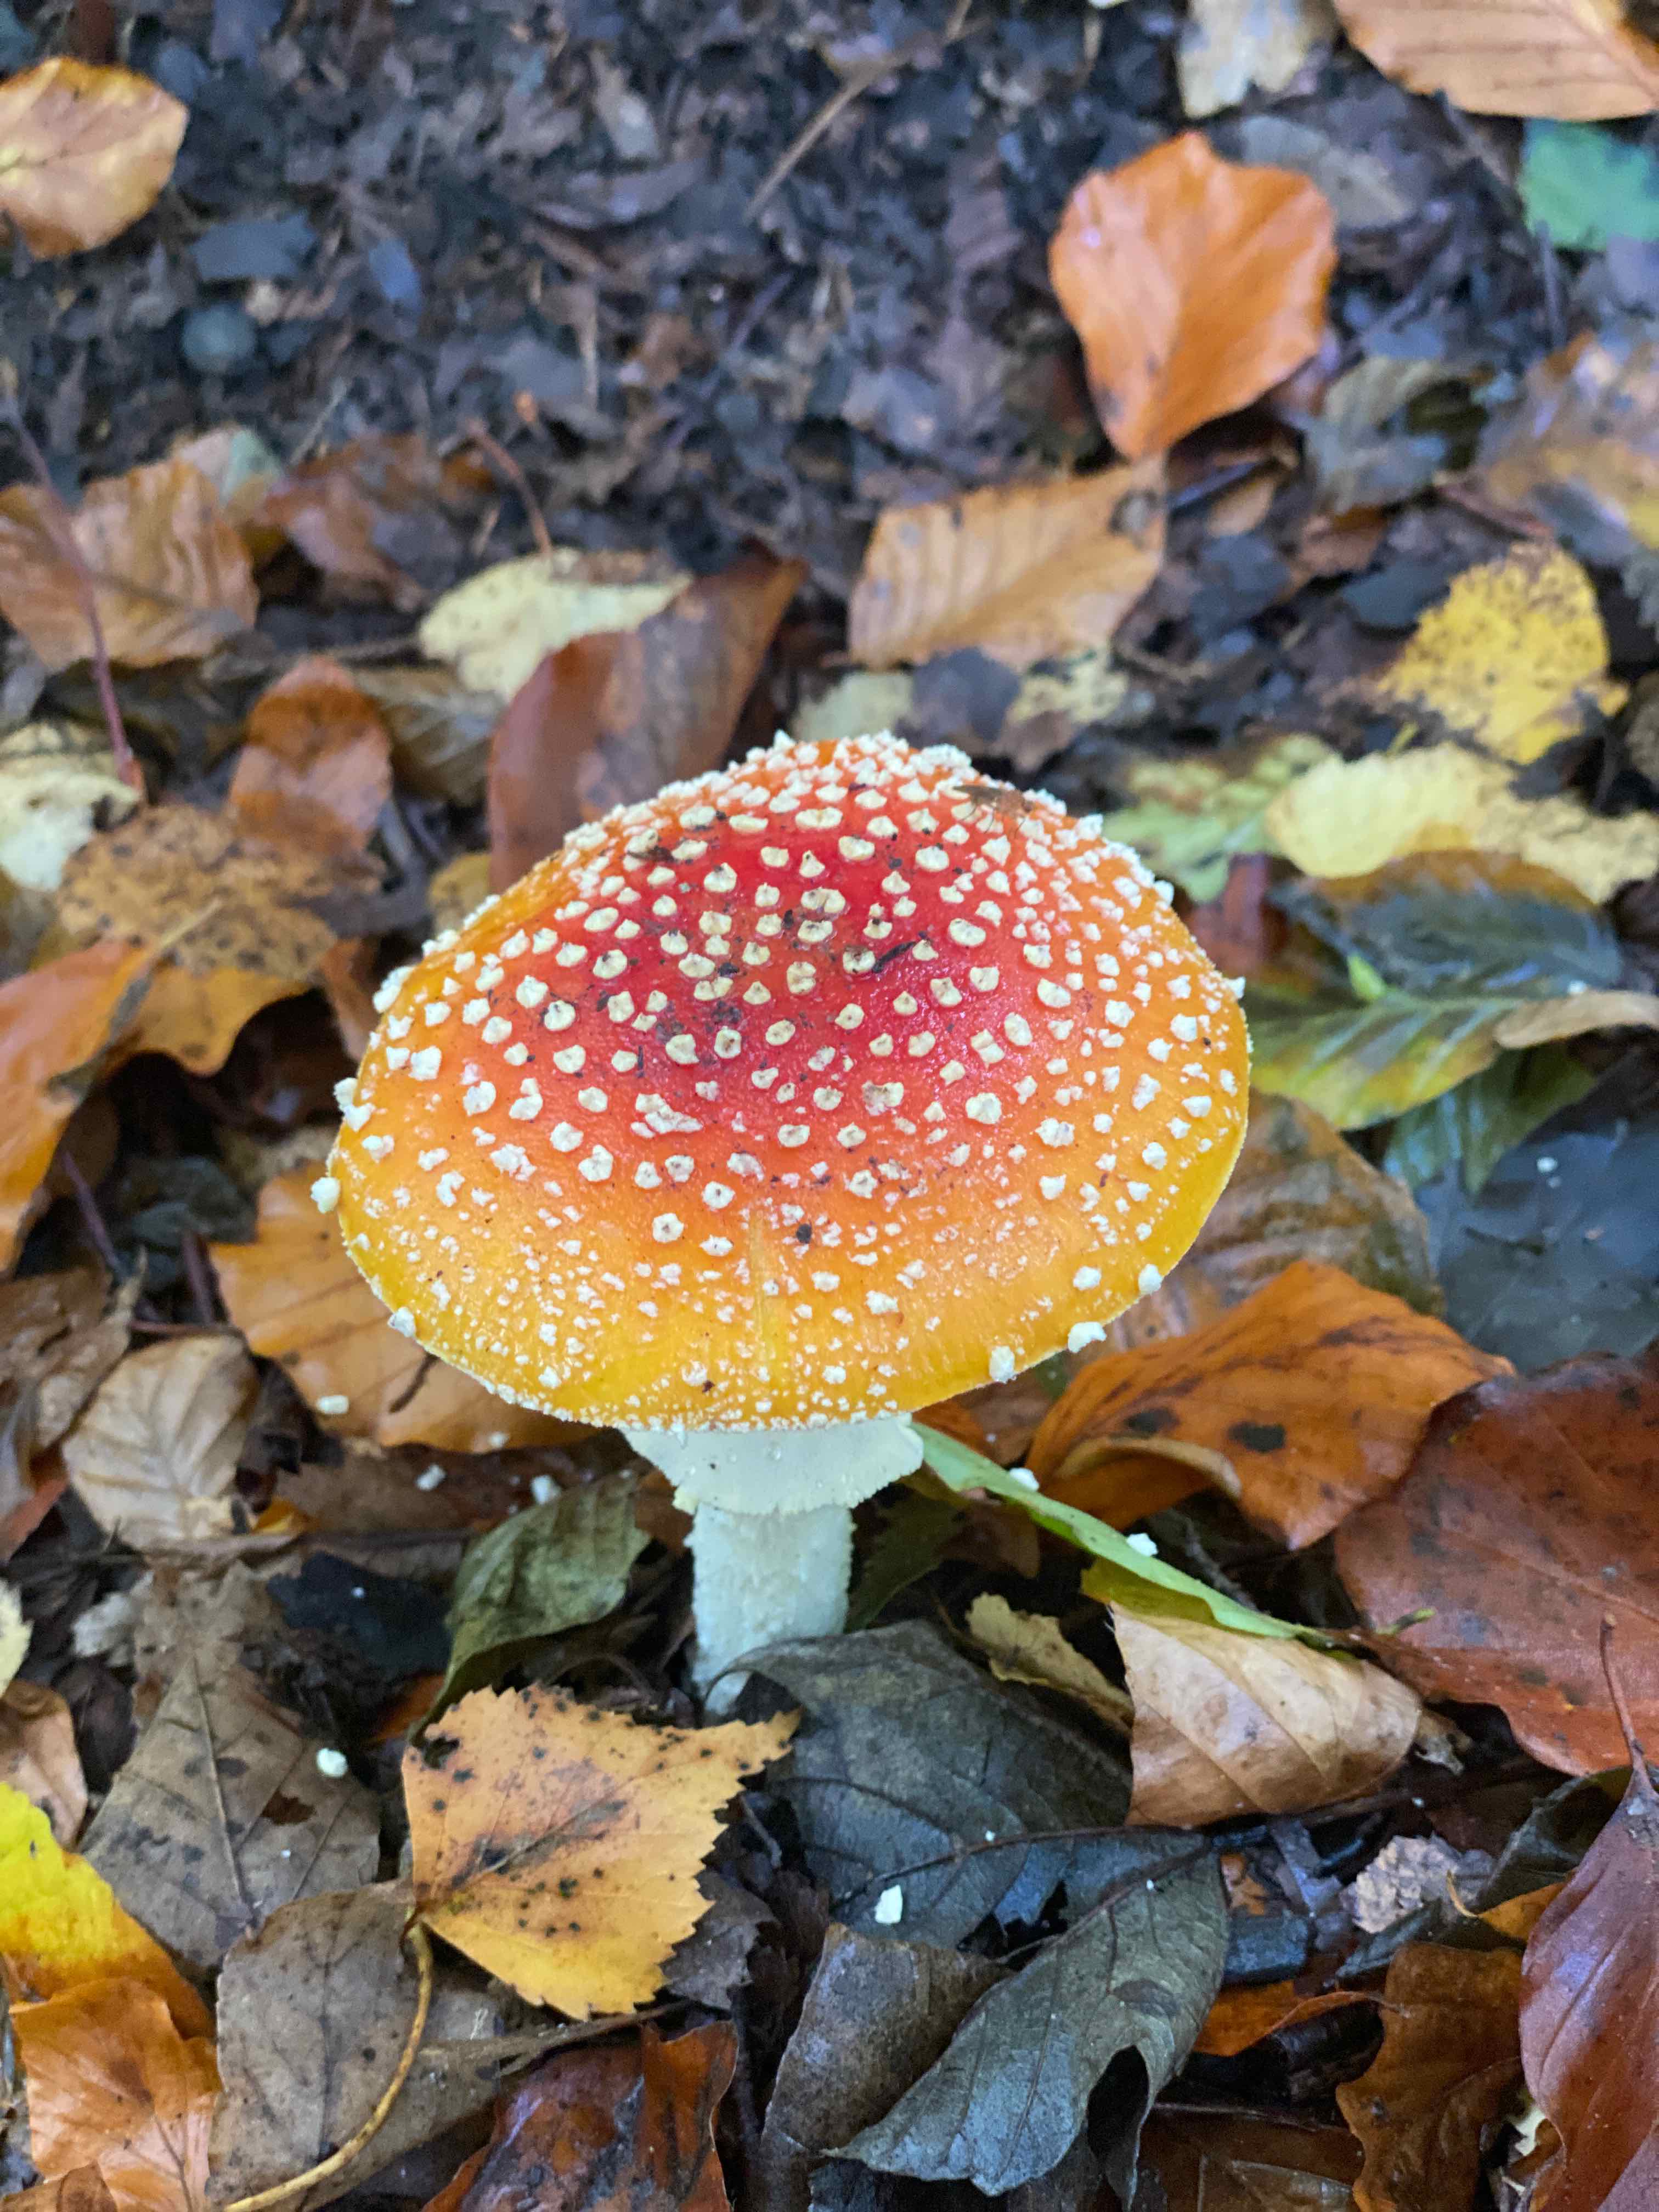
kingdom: Fungi
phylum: Basidiomycota
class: Agaricomycetes
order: Agaricales
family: Amanitaceae
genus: Amanita
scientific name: Amanita muscaria
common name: rød fluesvamp
